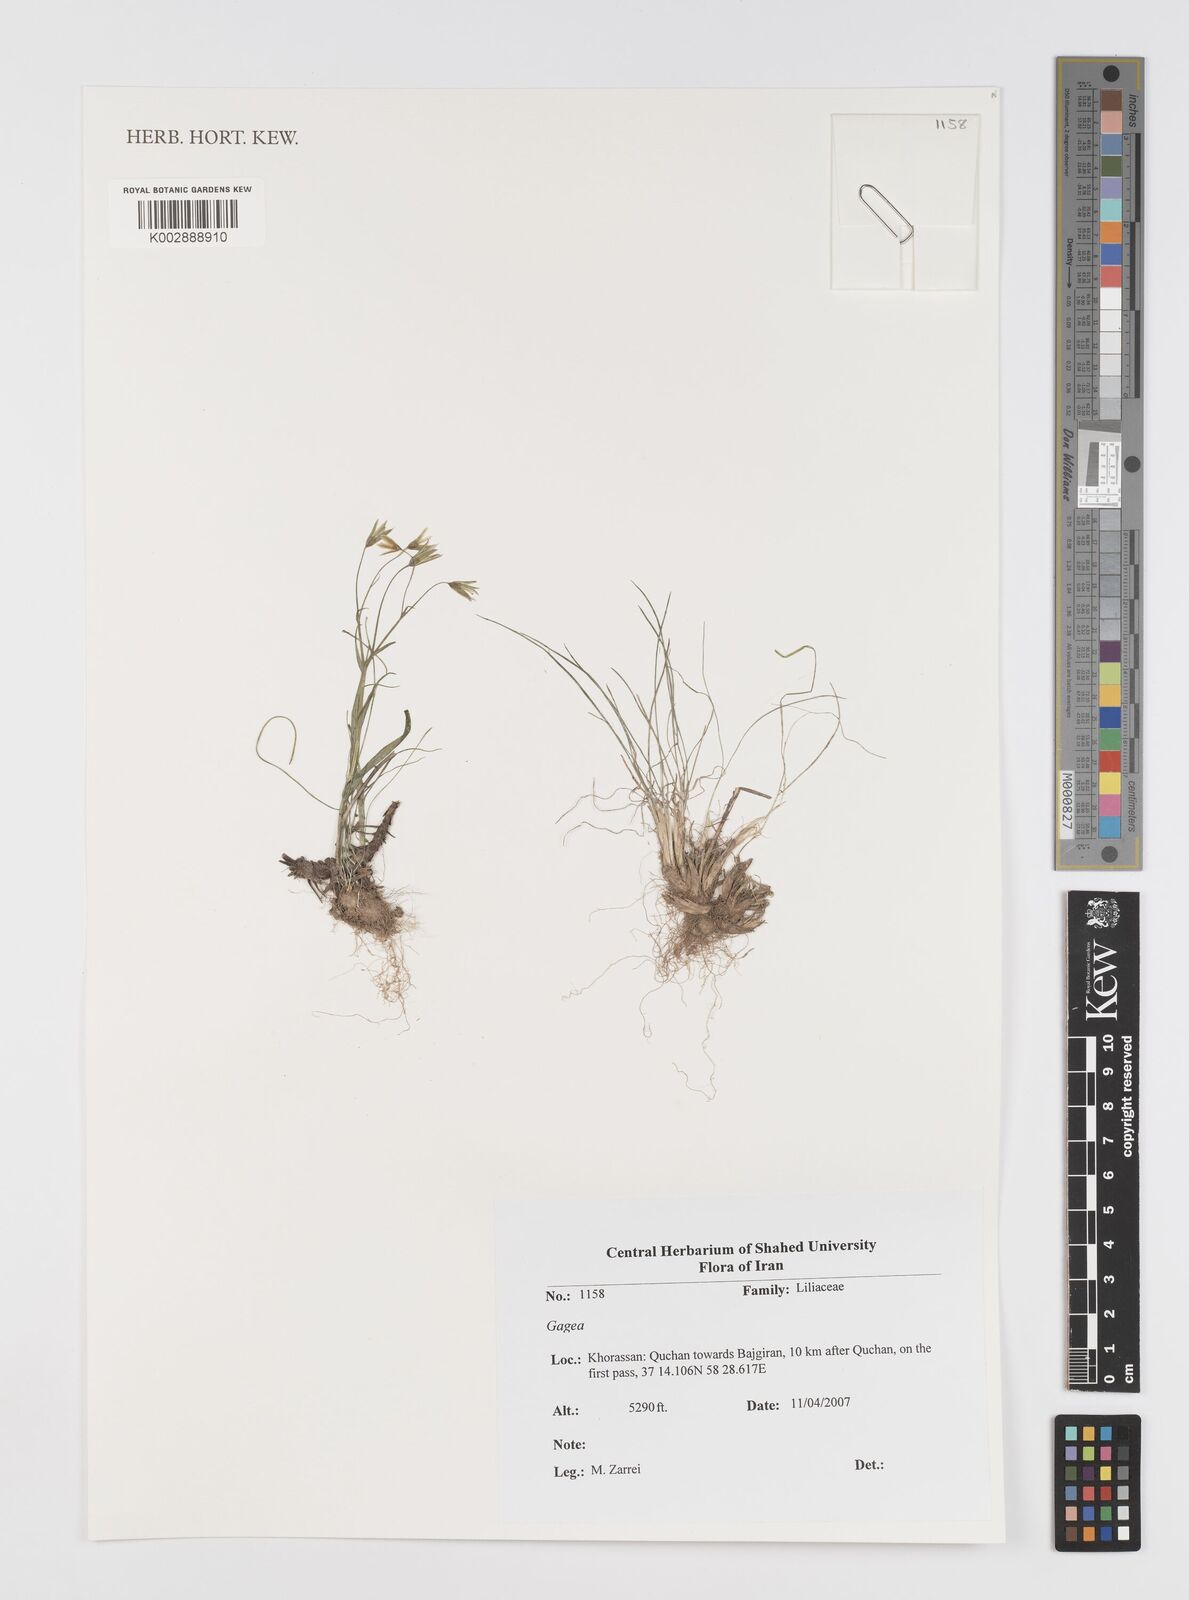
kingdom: Plantae
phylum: Tracheophyta
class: Liliopsida
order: Liliales
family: Liliaceae
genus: Gagea
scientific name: Gagea
